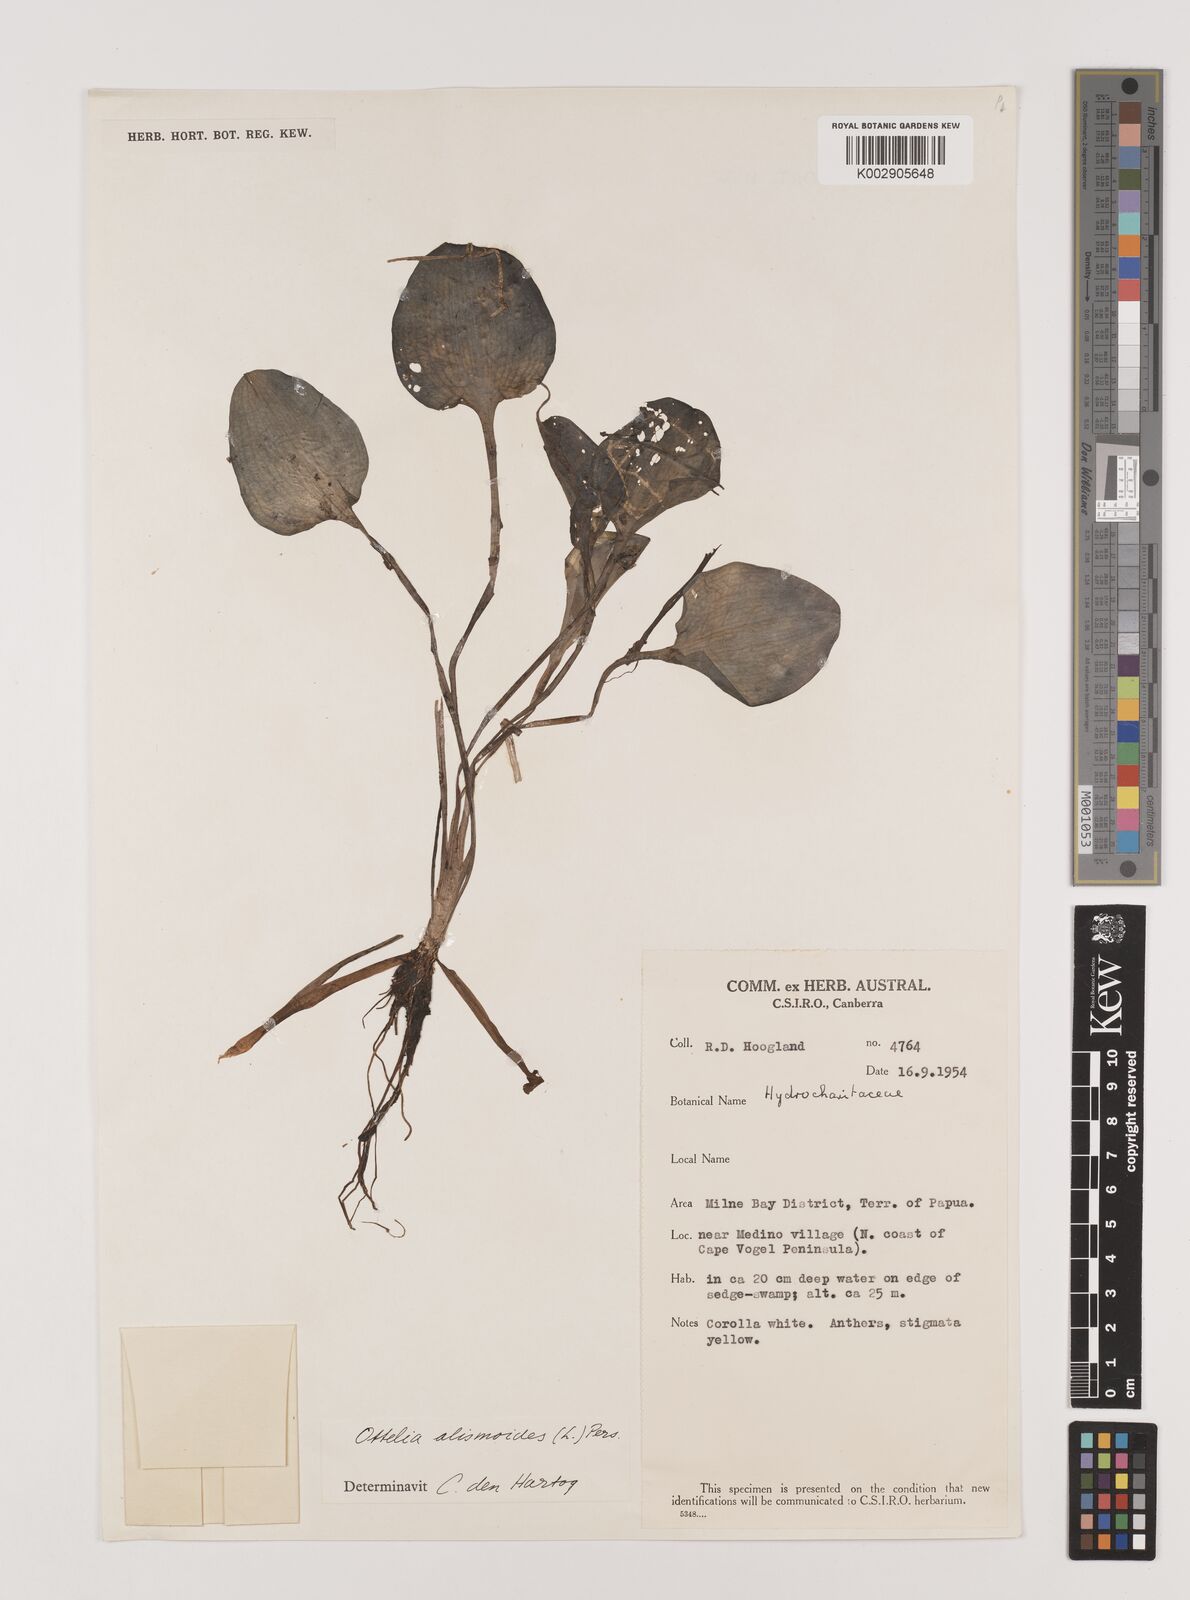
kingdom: Plantae
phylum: Tracheophyta
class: Liliopsida
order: Alismatales
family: Hydrocharitaceae
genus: Ottelia
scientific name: Ottelia alismoides
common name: Duck-lettuce
